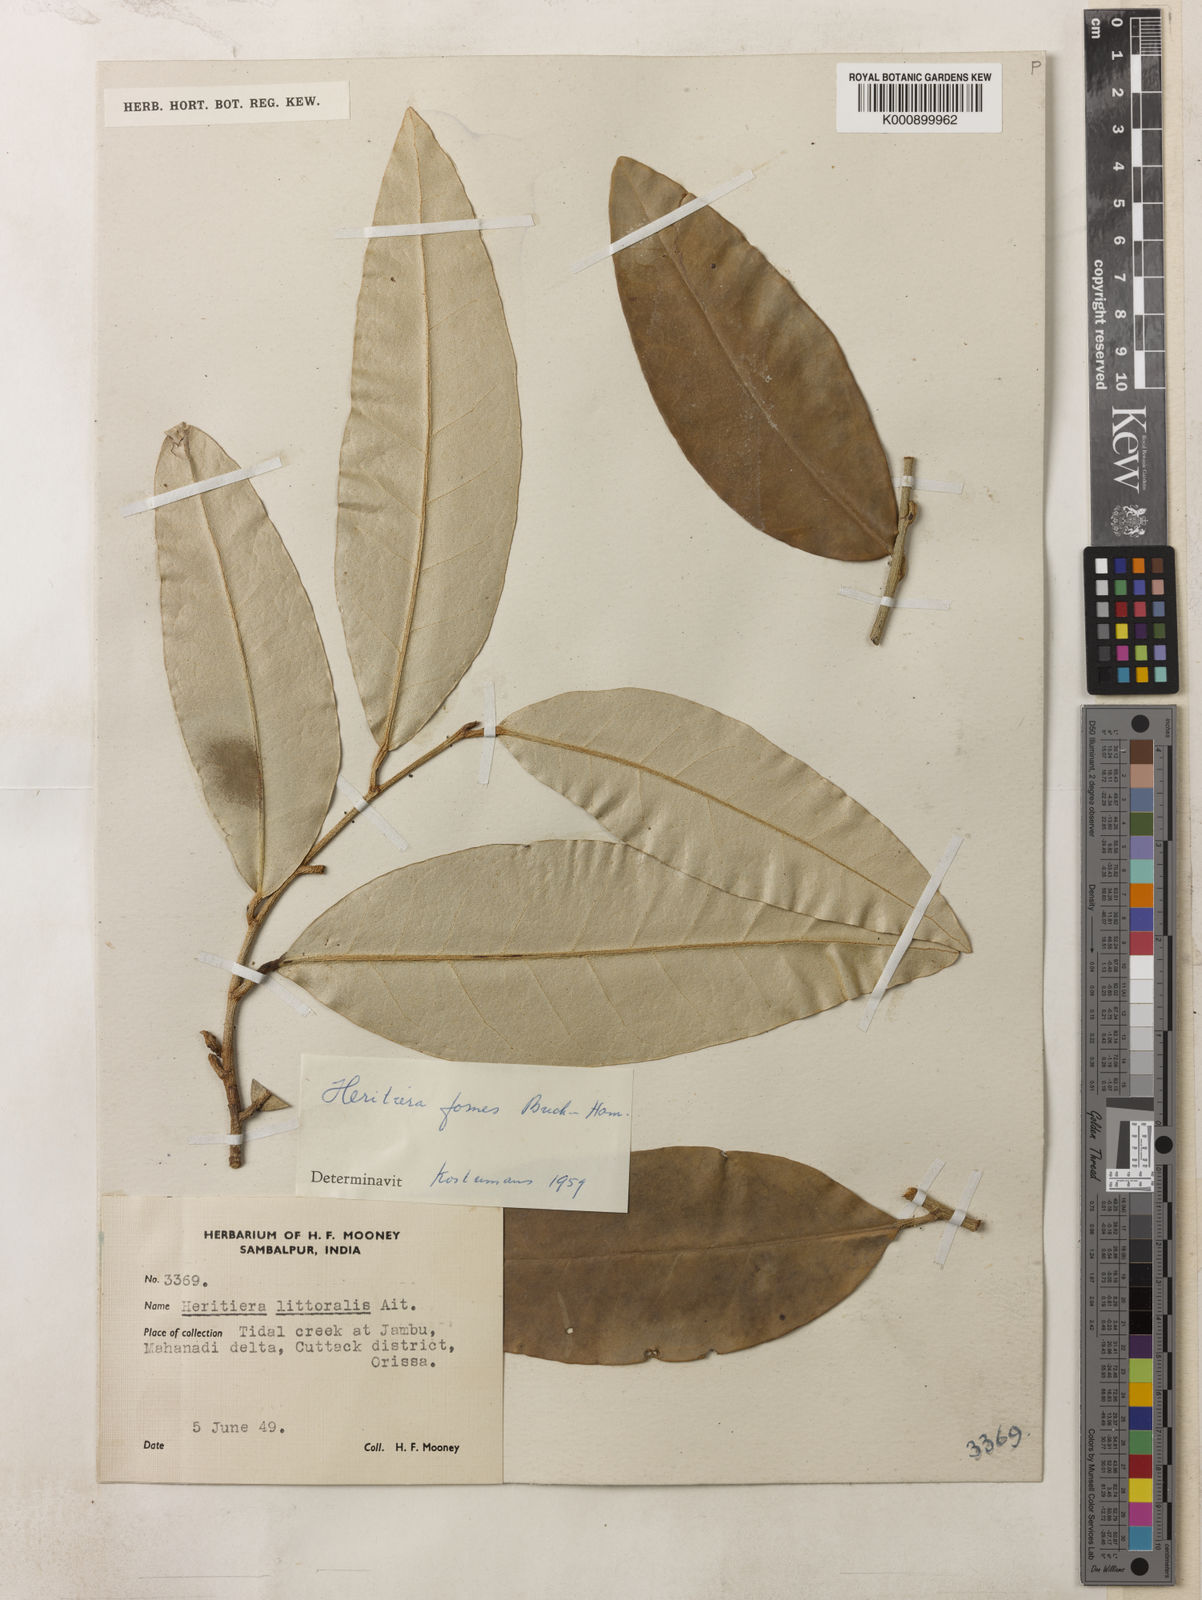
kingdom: Plantae
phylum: Tracheophyta
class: Magnoliopsida
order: Malvales
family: Malvaceae
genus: Heritiera
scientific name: Heritiera
